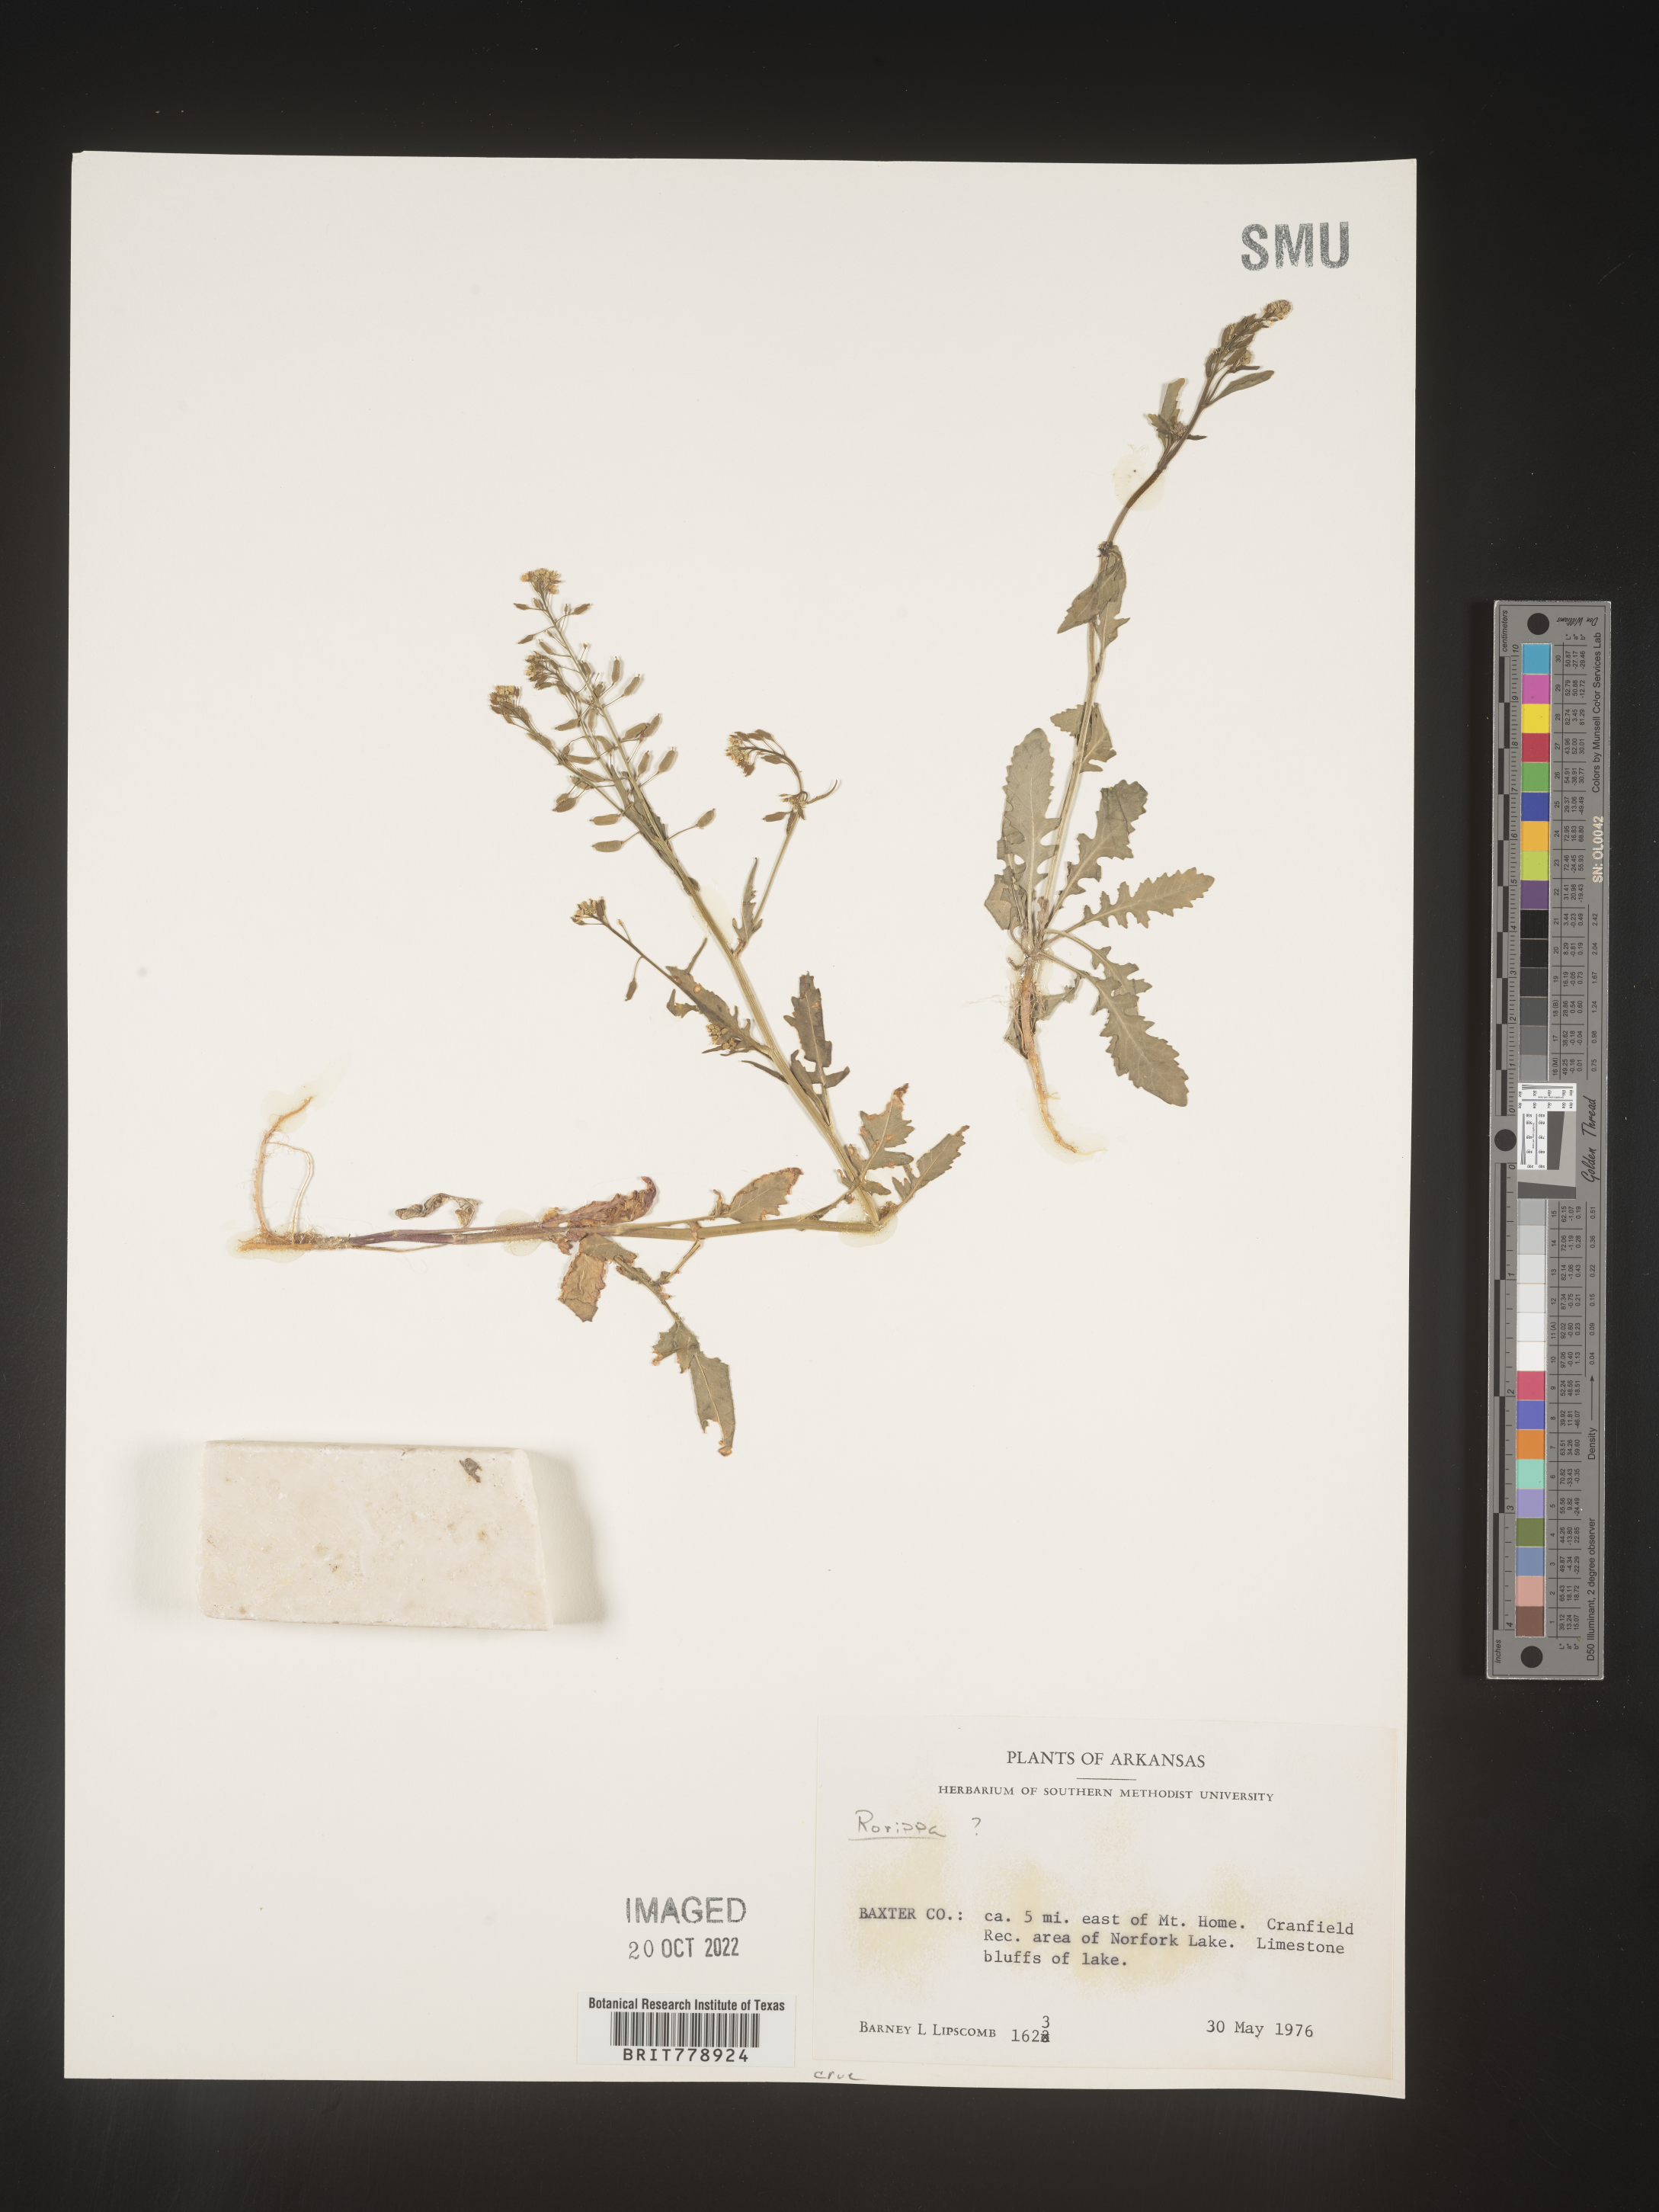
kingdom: Plantae
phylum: Tracheophyta
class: Magnoliopsida
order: Brassicales
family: Brassicaceae
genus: Rorippa
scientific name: Rorippa palustris
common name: Marsh yellow-cress
